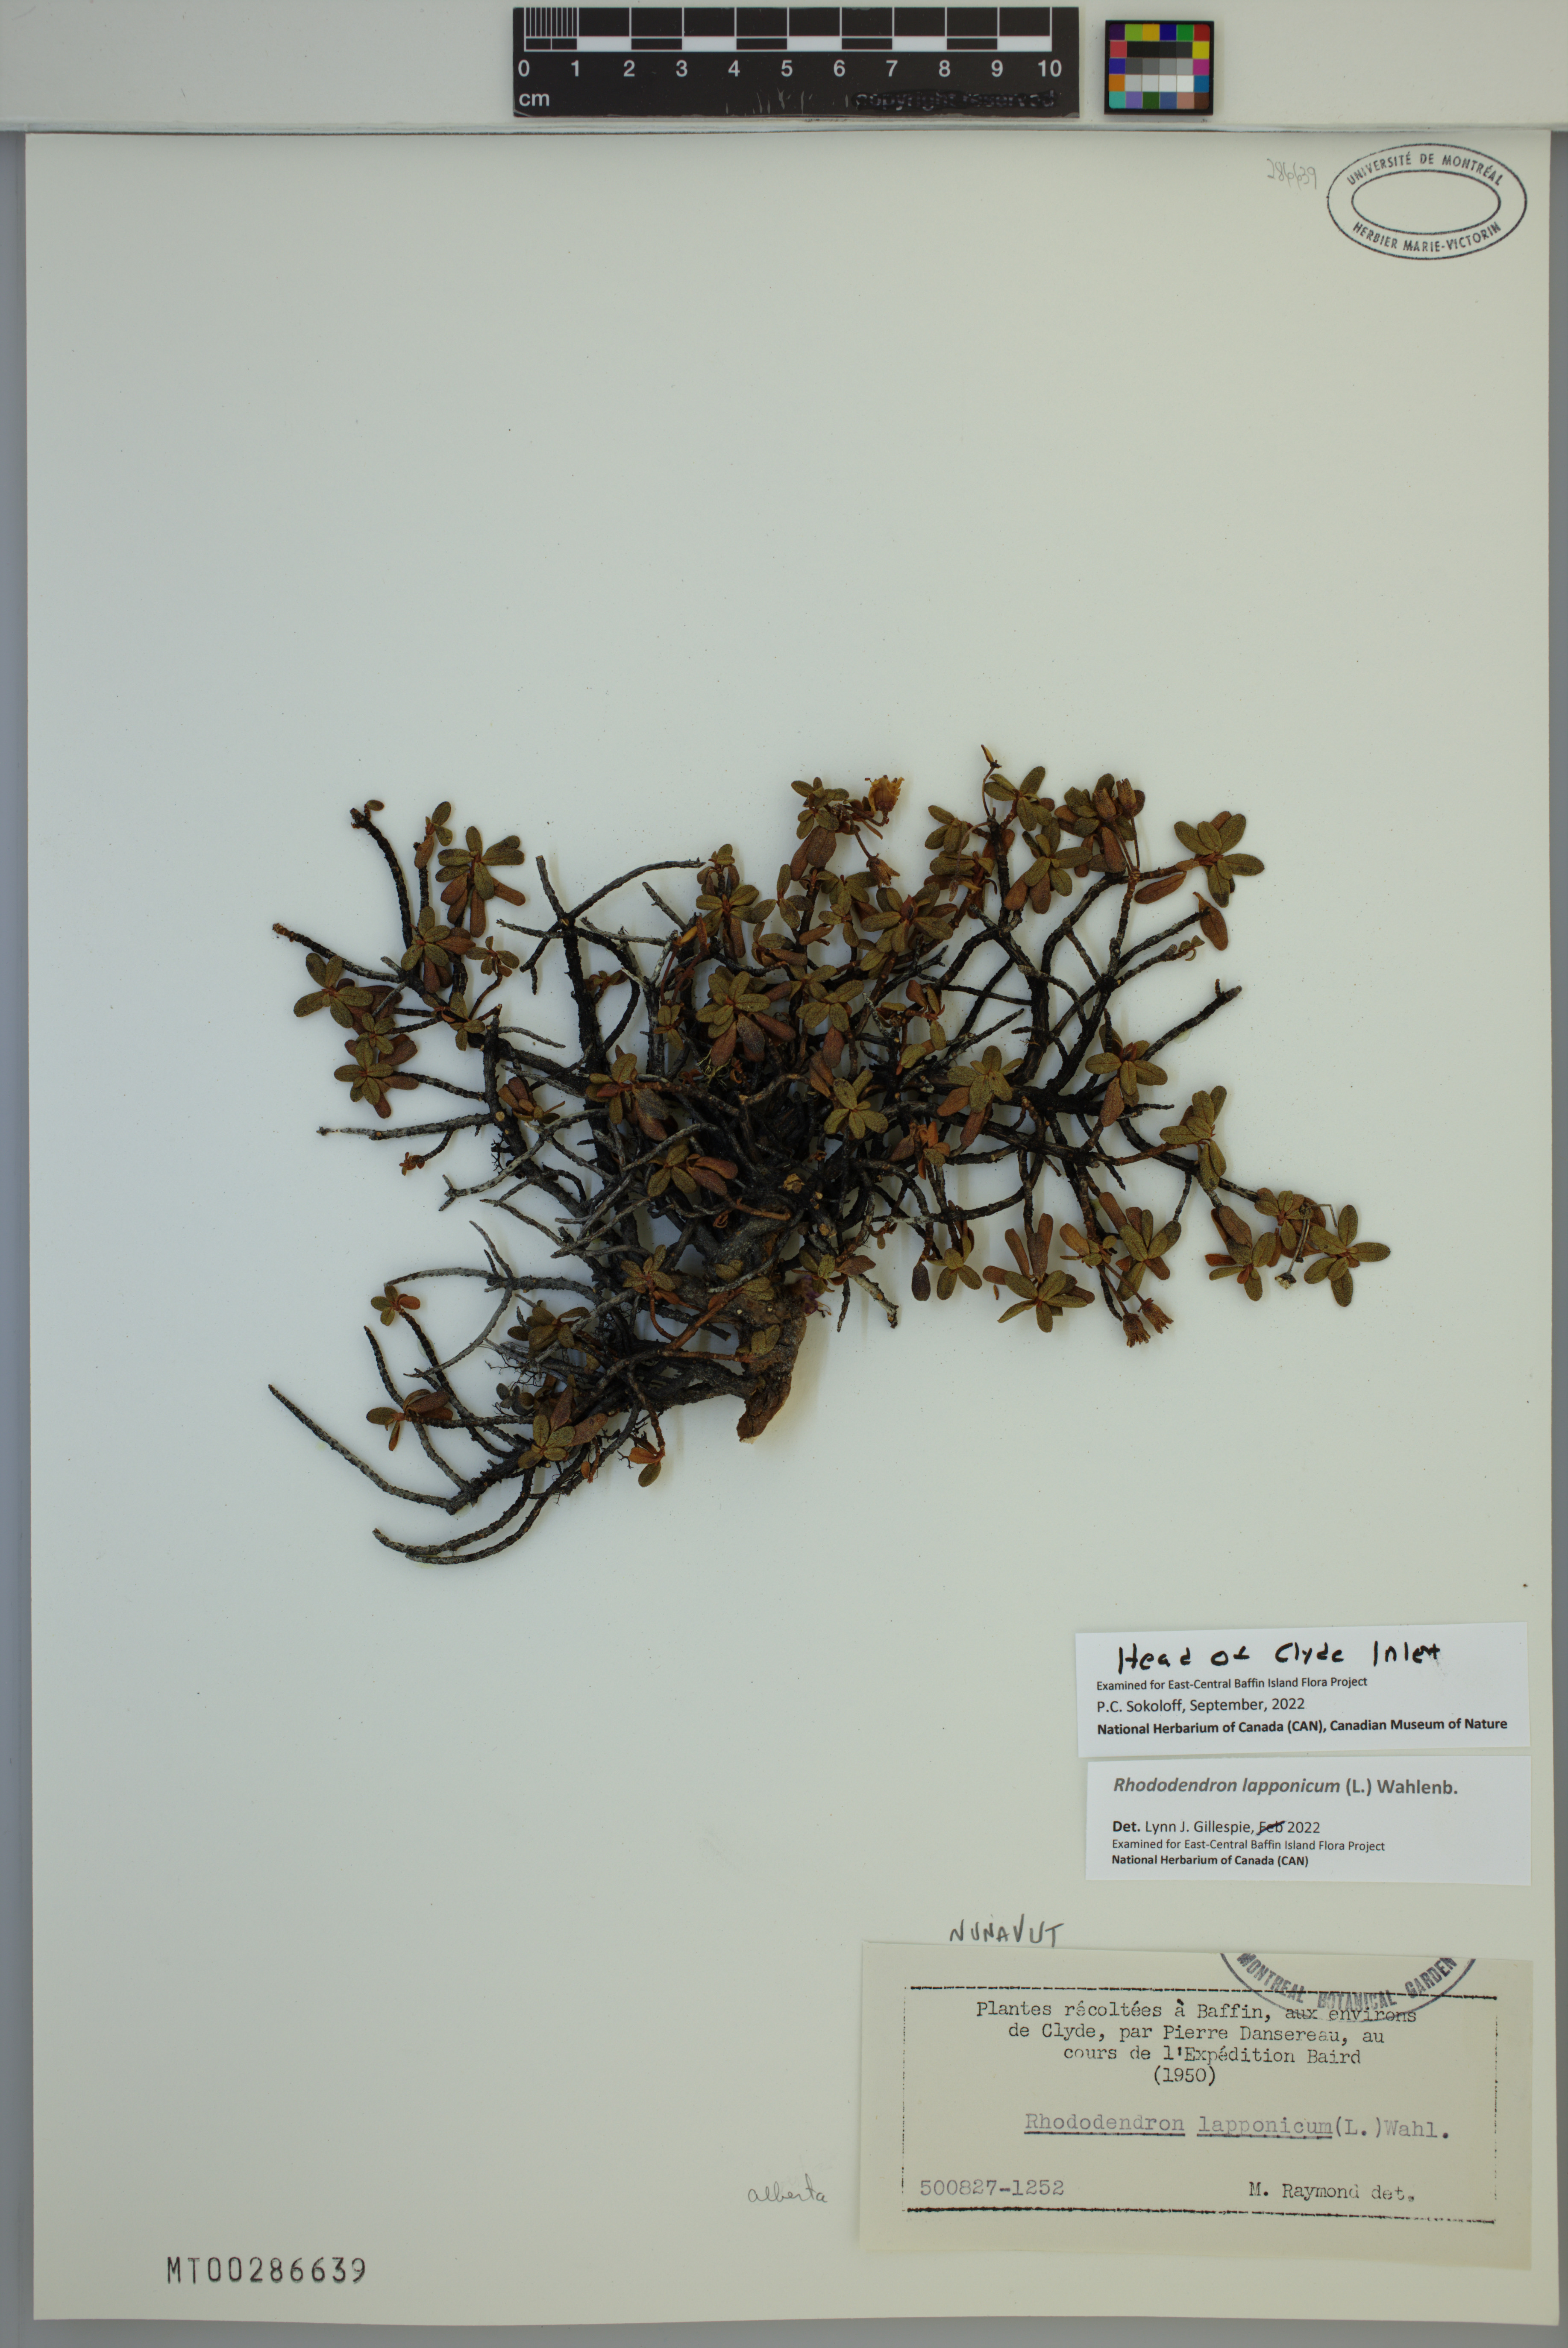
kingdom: Plantae
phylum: Tracheophyta
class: Magnoliopsida
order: Ericales
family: Ericaceae
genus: Rhododendron
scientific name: Rhododendron lapponicum
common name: Lapland rhododendron
